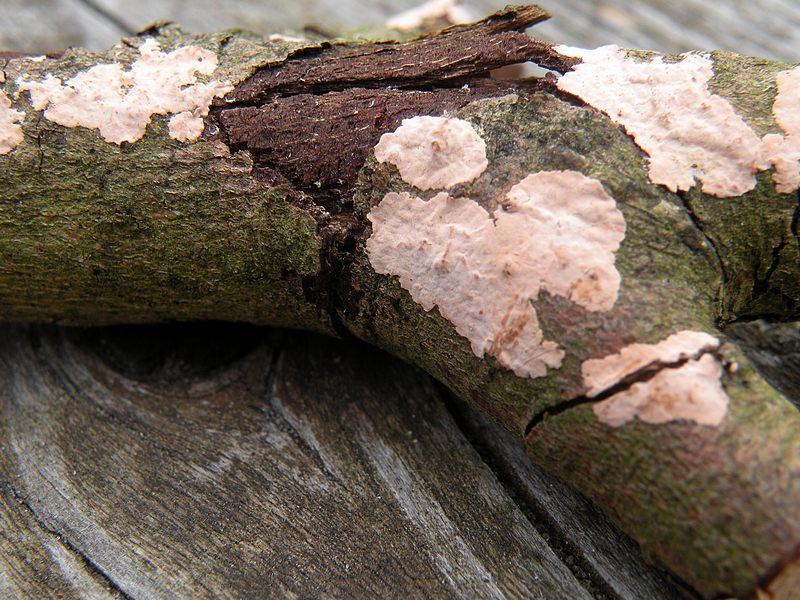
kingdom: Fungi
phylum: Basidiomycota
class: Agaricomycetes
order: Corticiales
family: Corticiaceae
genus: Corticium
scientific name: Corticium roseum
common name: rosa barkskind
